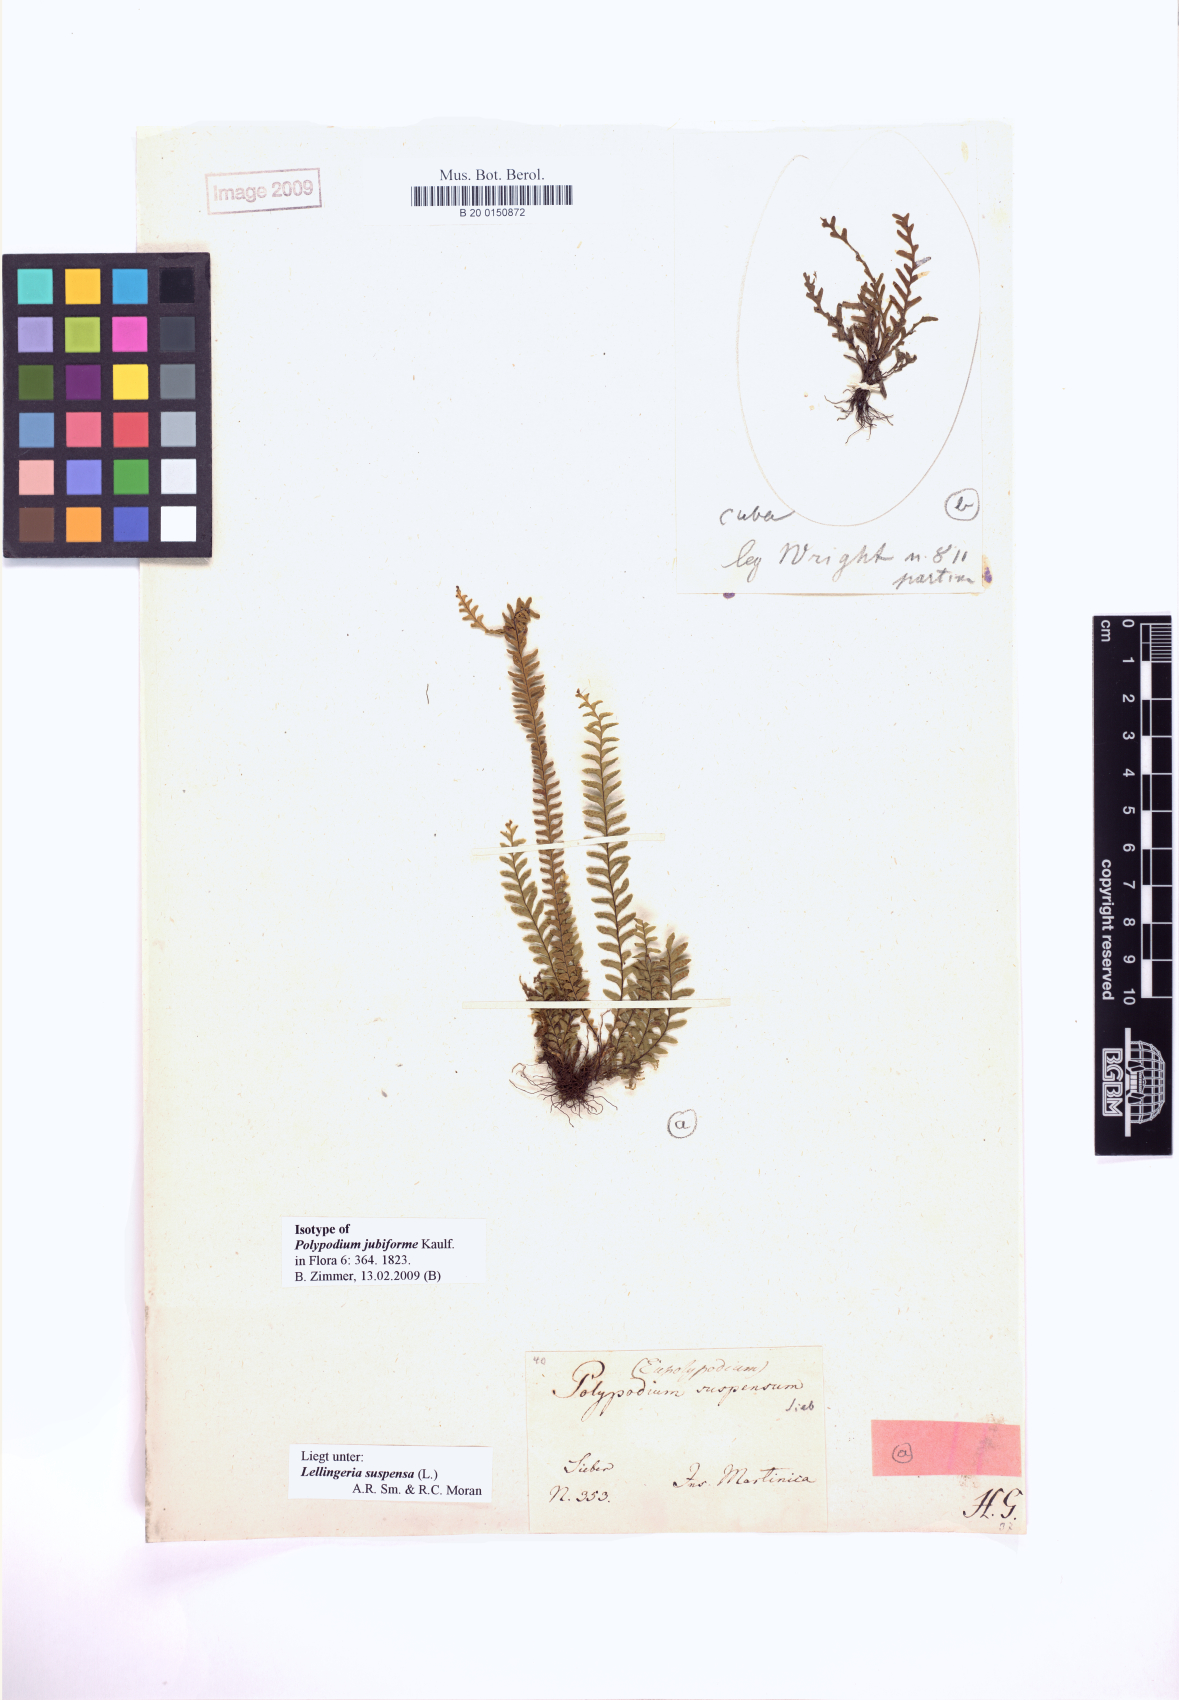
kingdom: Plantae
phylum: Tracheophyta
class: Polypodiopsida
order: Polypodiales
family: Polypodiaceae
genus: Lellingeria
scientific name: Lellingeria suspensa
